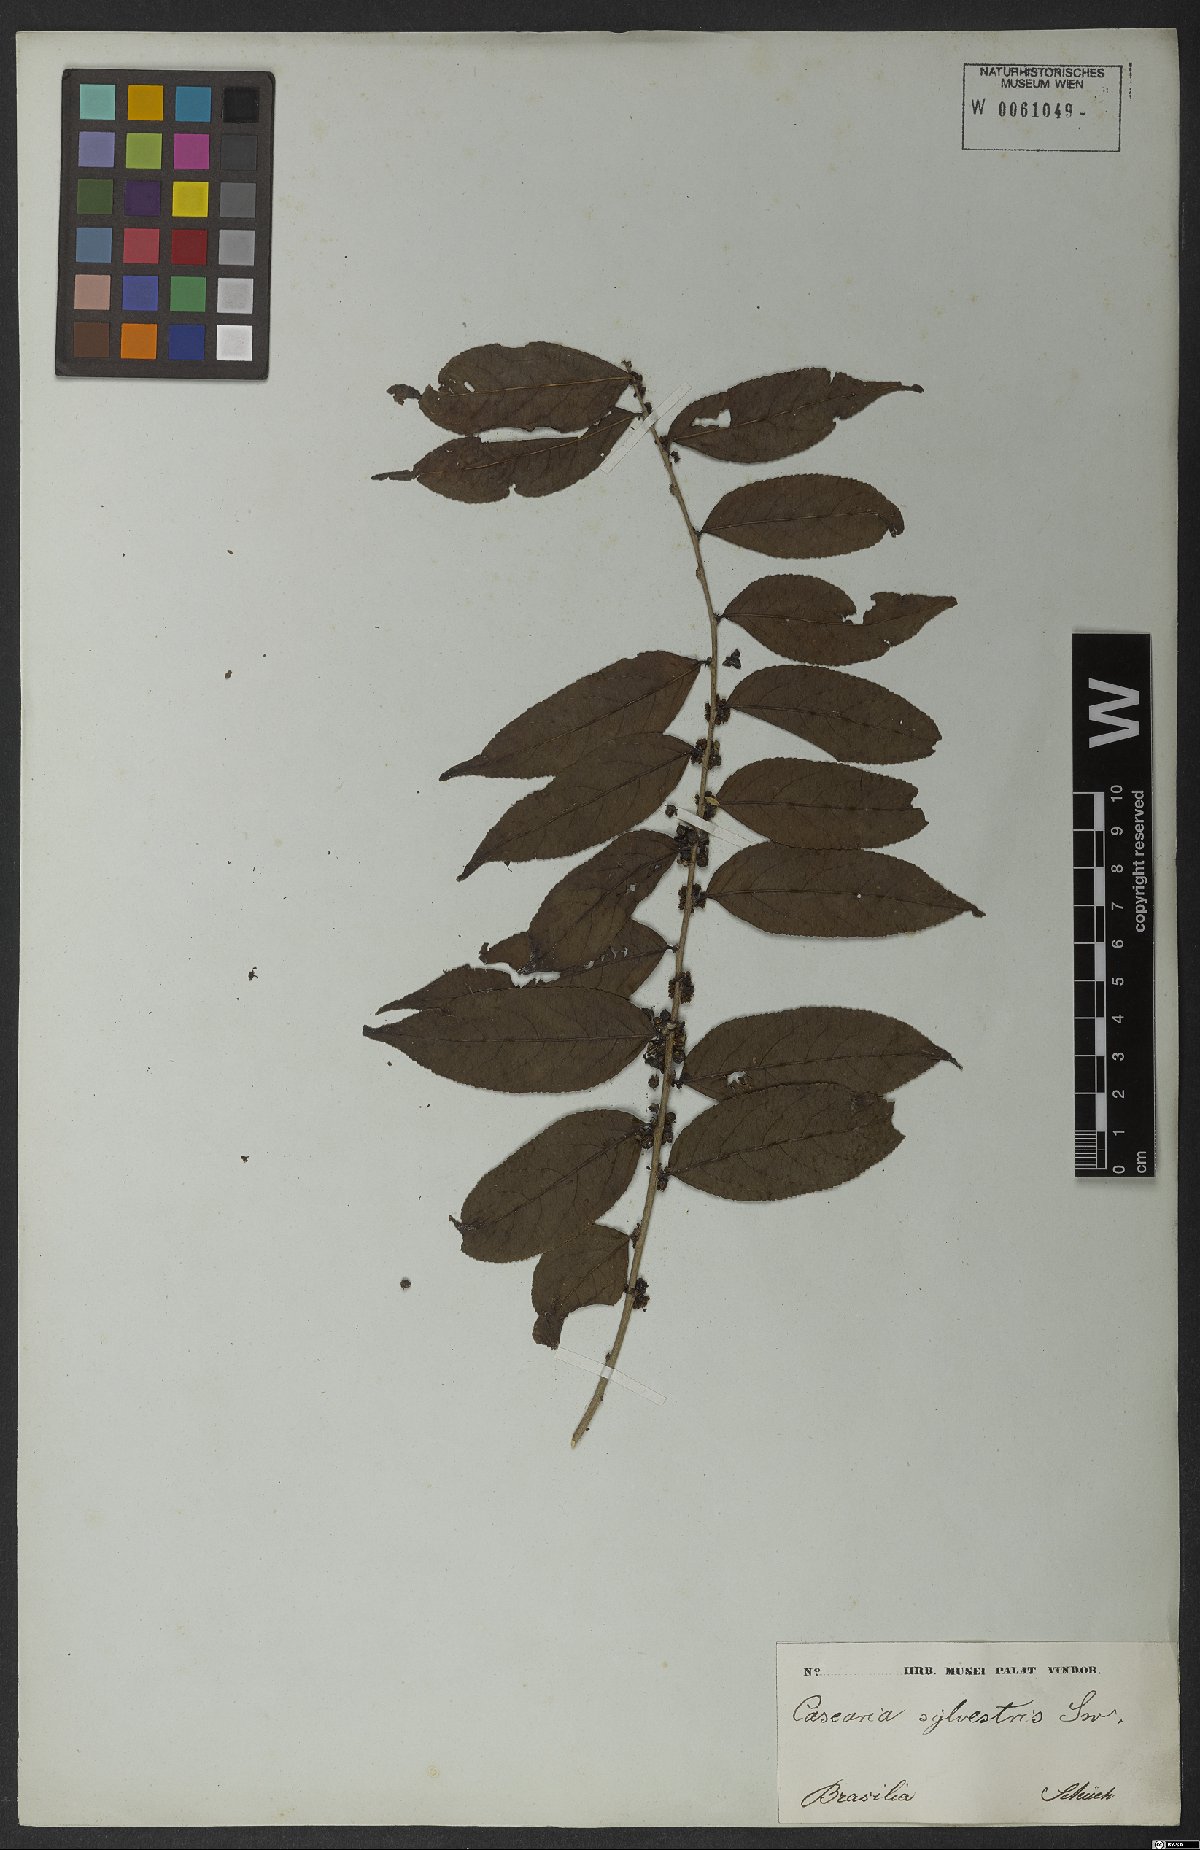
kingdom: Plantae
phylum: Tracheophyta
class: Magnoliopsida
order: Malpighiales
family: Salicaceae
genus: Casearia
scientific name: Casearia sylvestris
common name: Wild sage
